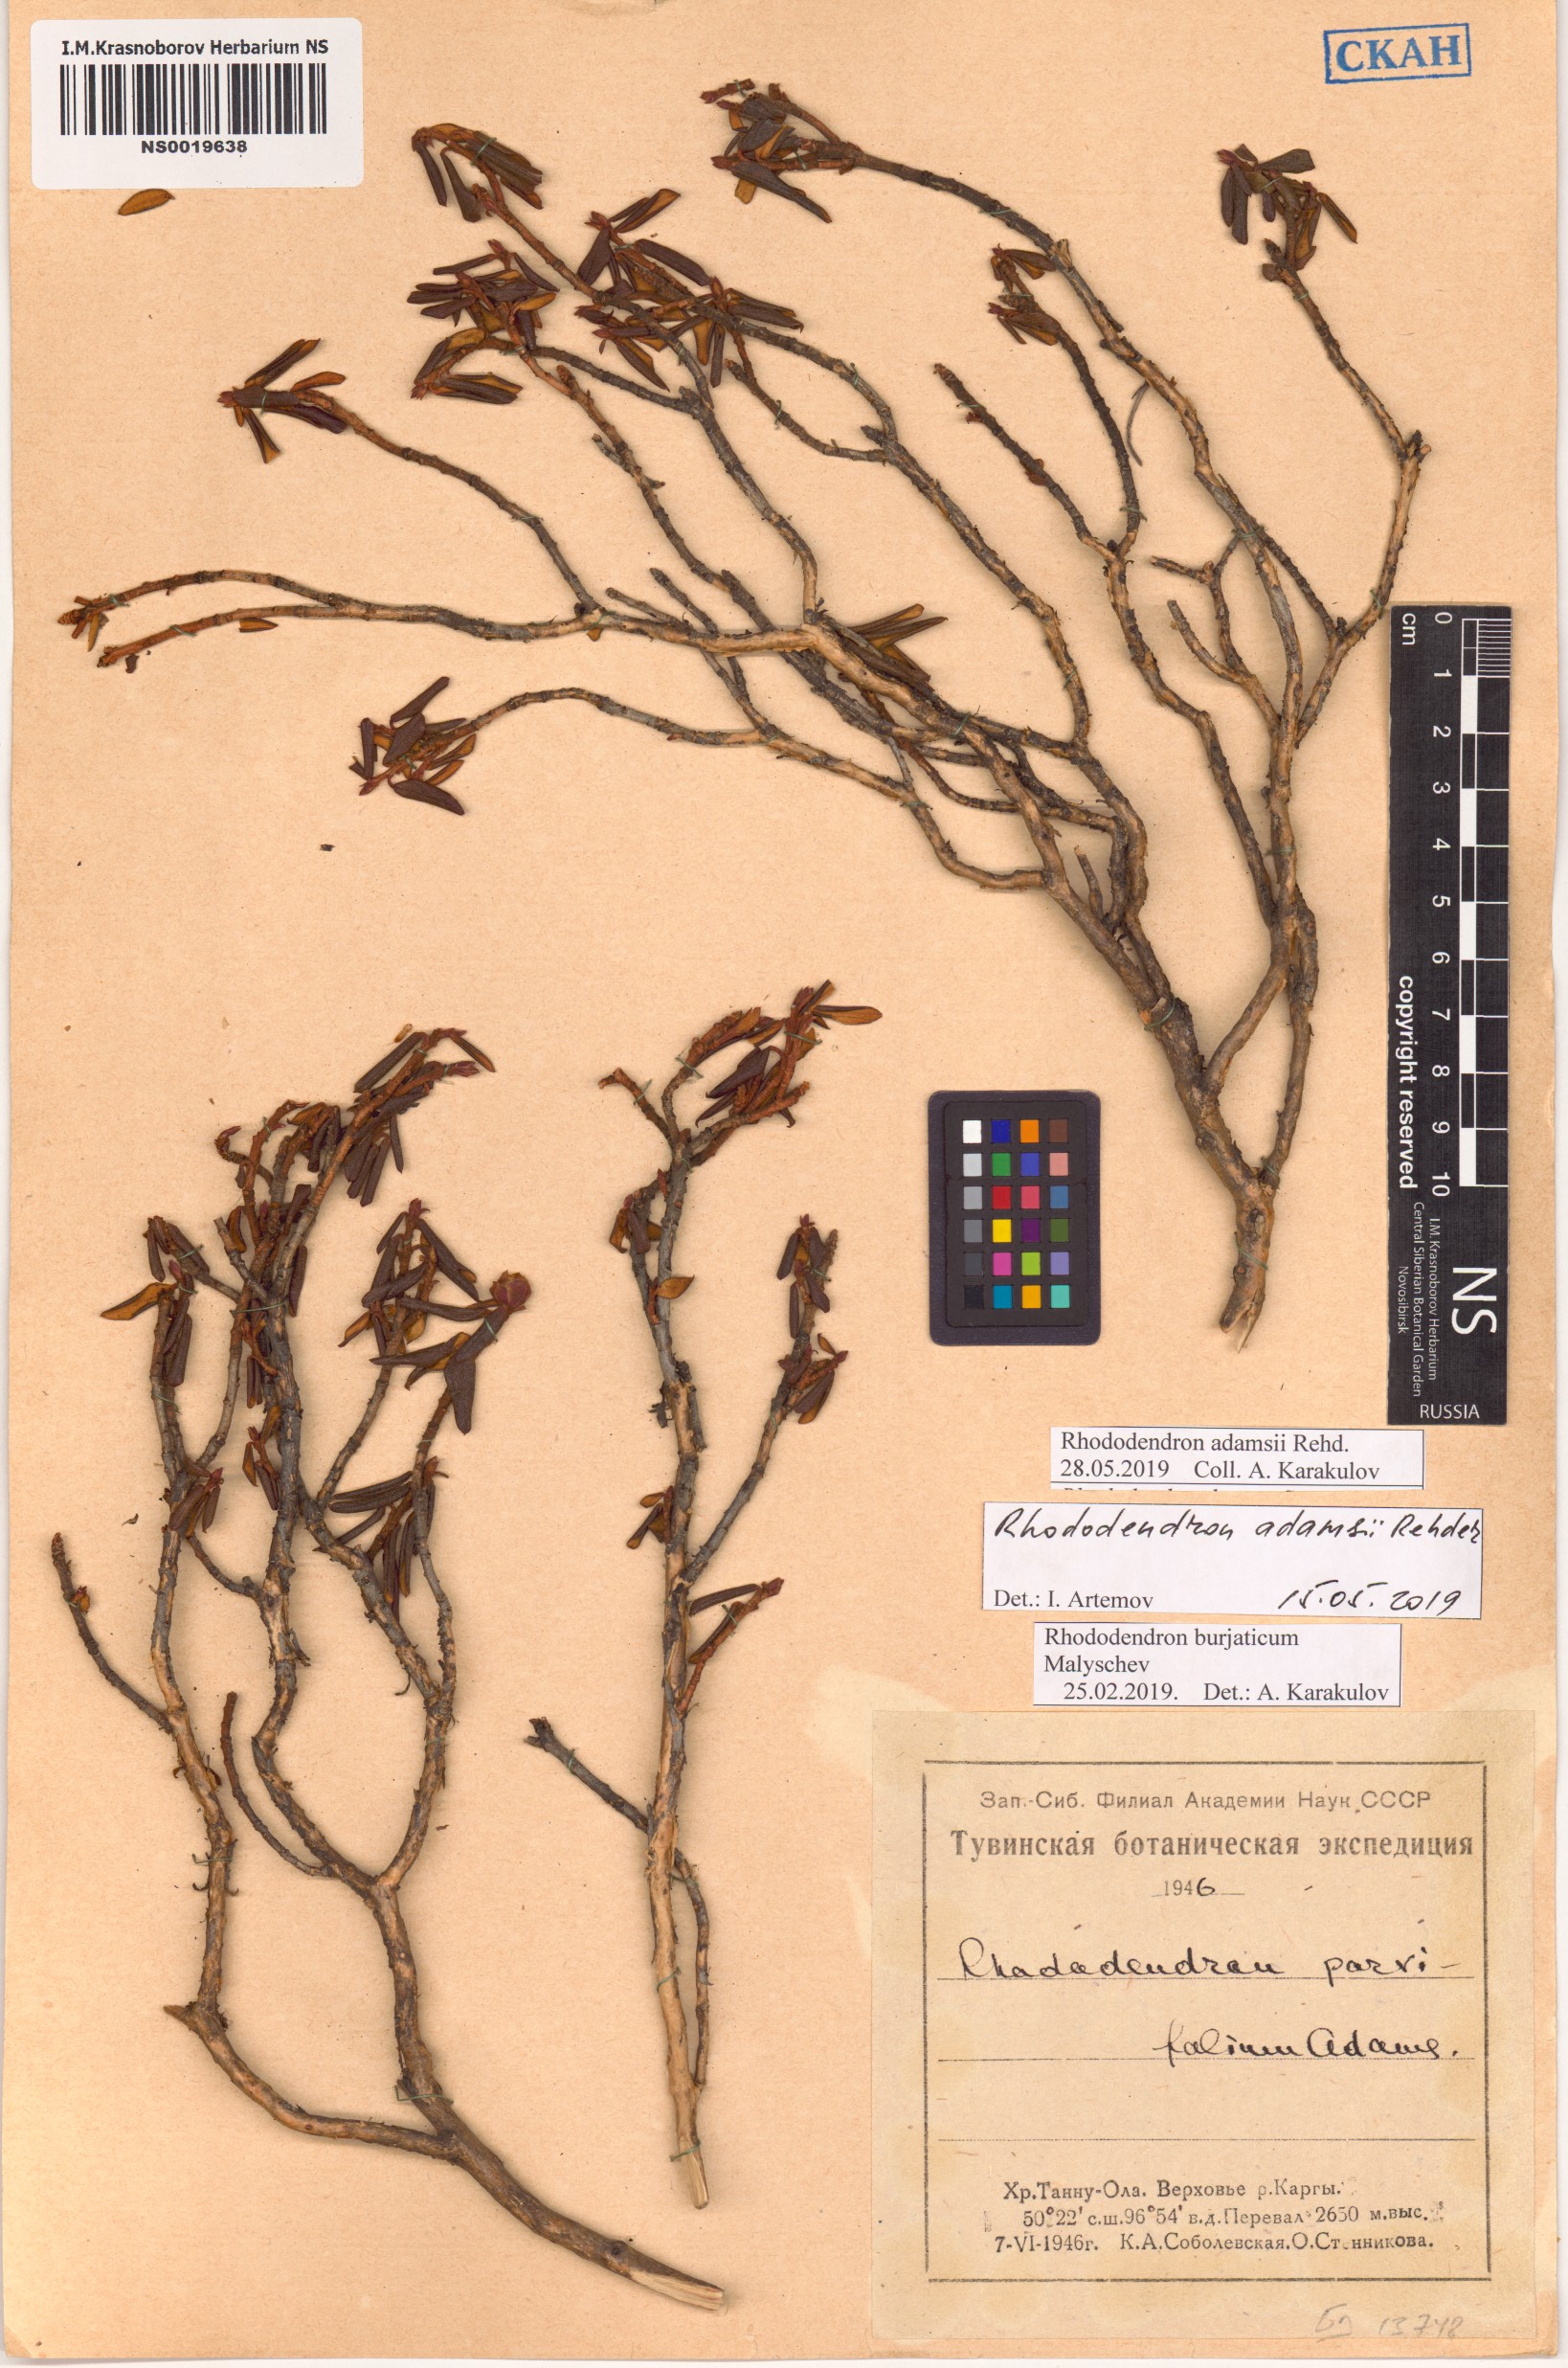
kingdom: Plantae
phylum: Tracheophyta
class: Magnoliopsida
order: Ericales
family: Ericaceae
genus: Rhododendron
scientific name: Rhododendron adamsii
